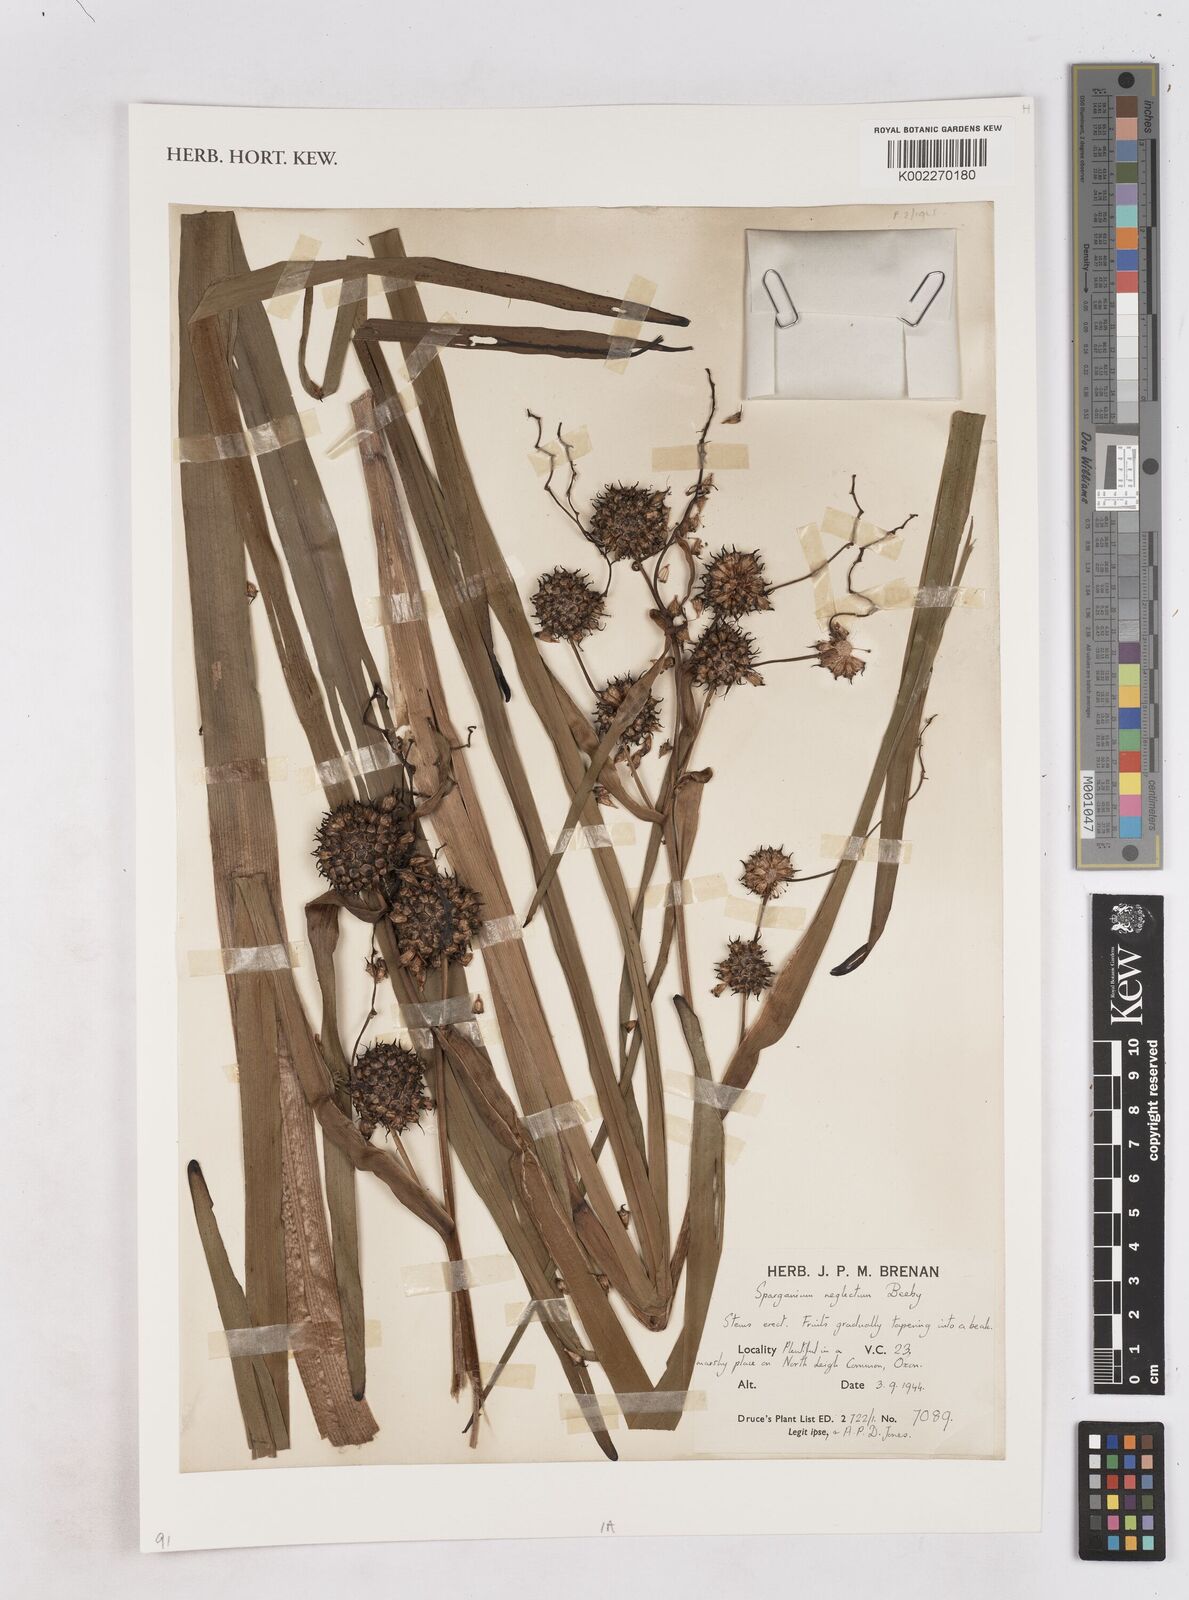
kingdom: Plantae
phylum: Tracheophyta
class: Liliopsida
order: Poales
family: Typhaceae
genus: Sparganium
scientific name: Sparganium erectum
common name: Branched bur-reed
